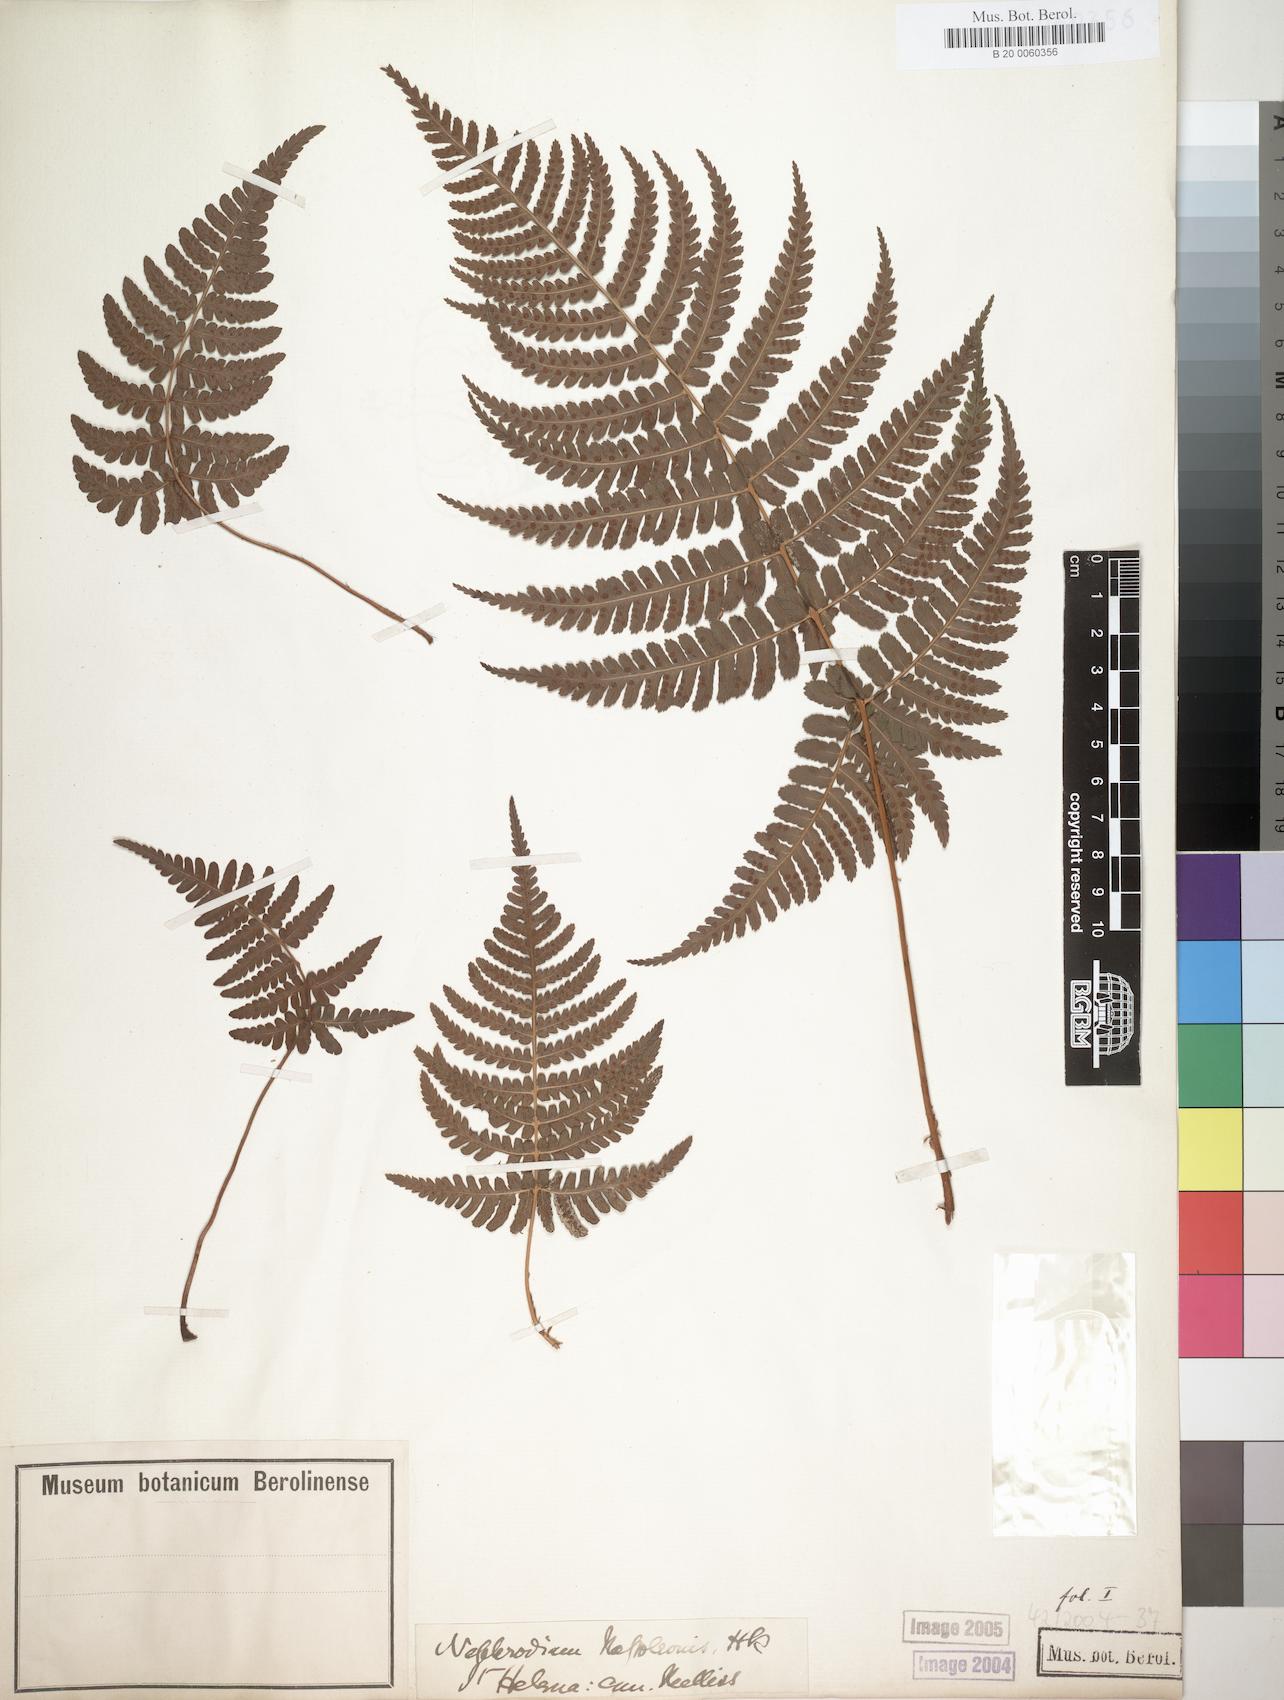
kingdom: Plantae
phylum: Tracheophyta
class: Polypodiopsida
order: Polypodiales
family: Dryopteridaceae
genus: Dryopteris
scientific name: Dryopteris napoleonis
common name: Small kidney fern
